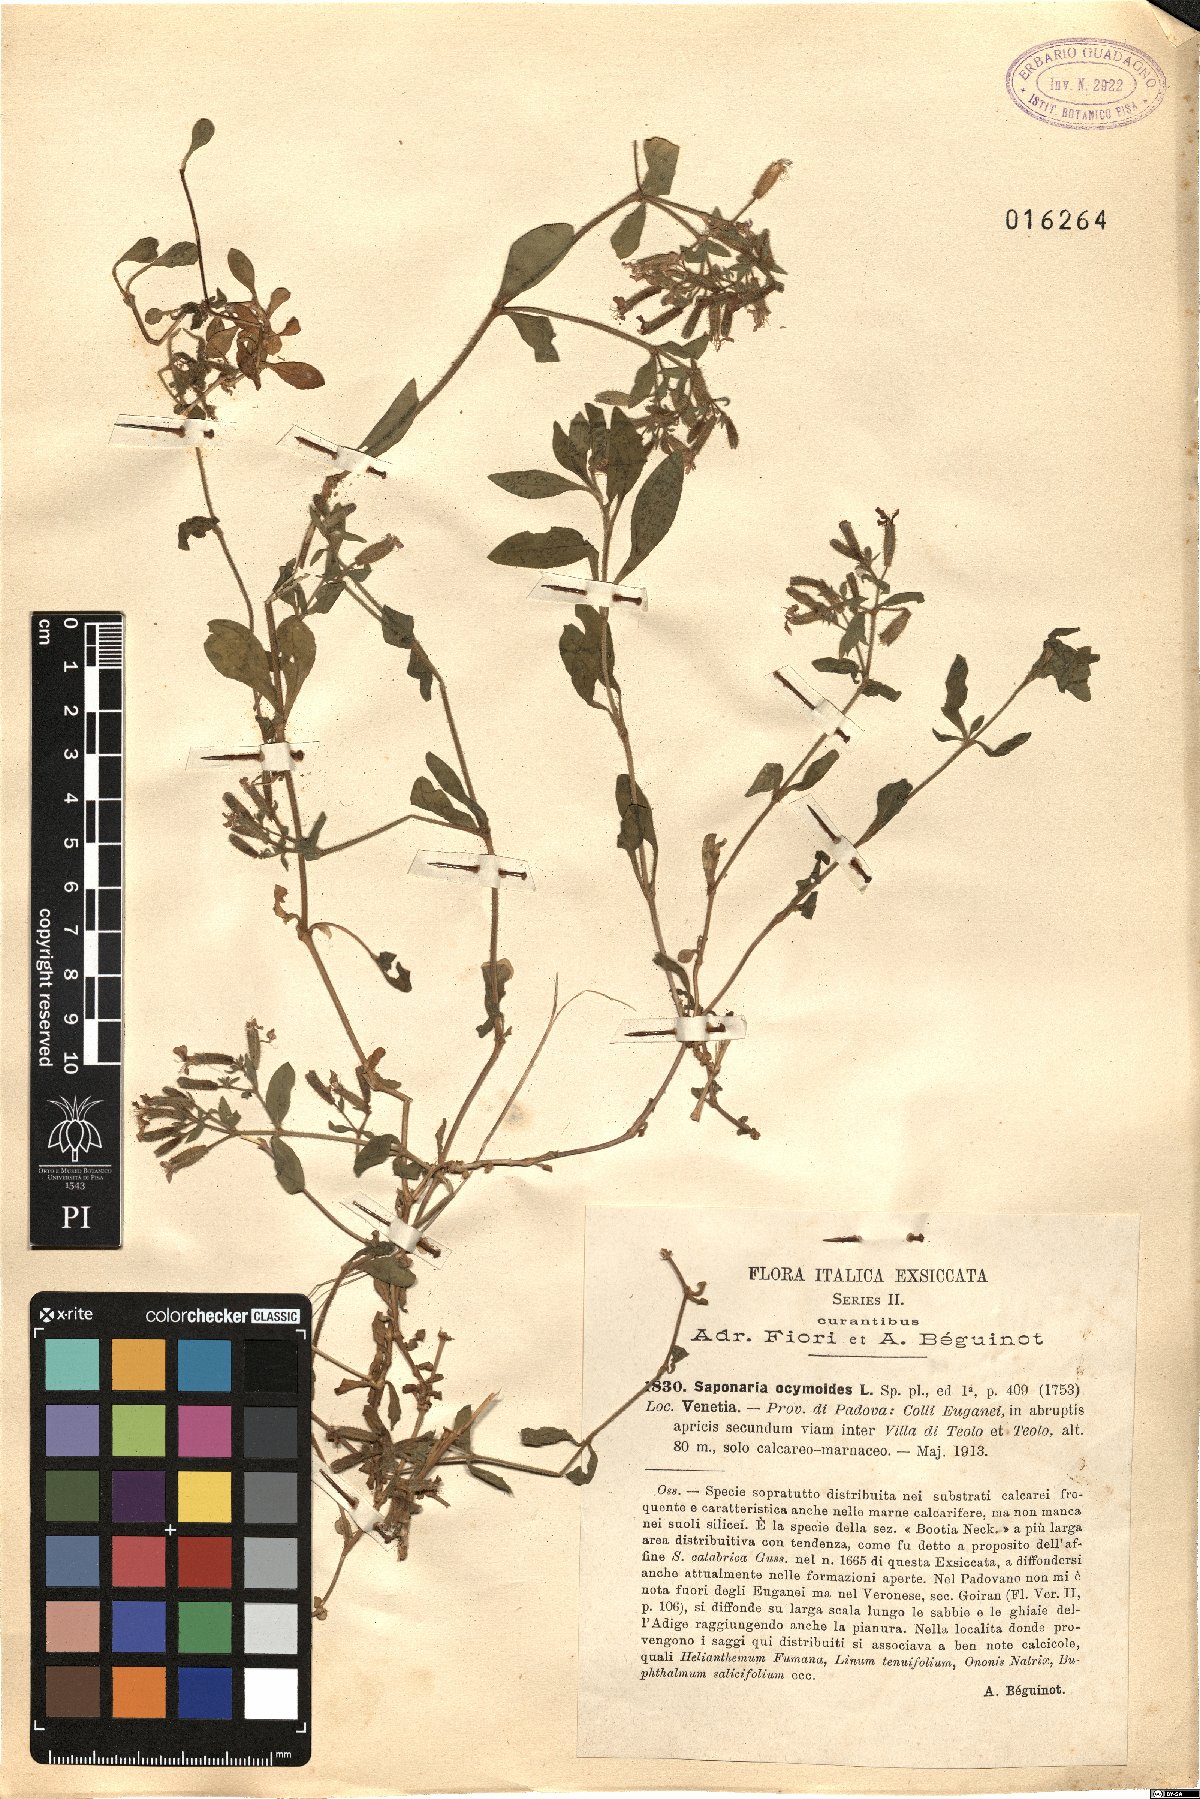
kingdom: Plantae
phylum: Tracheophyta
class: Magnoliopsida
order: Caryophyllales
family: Caryophyllaceae
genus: Saponaria
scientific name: Saponaria ocymoides
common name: Rock soapwort
